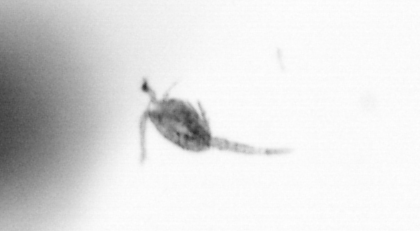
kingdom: Animalia
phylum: Arthropoda
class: Copepoda
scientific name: Copepoda
